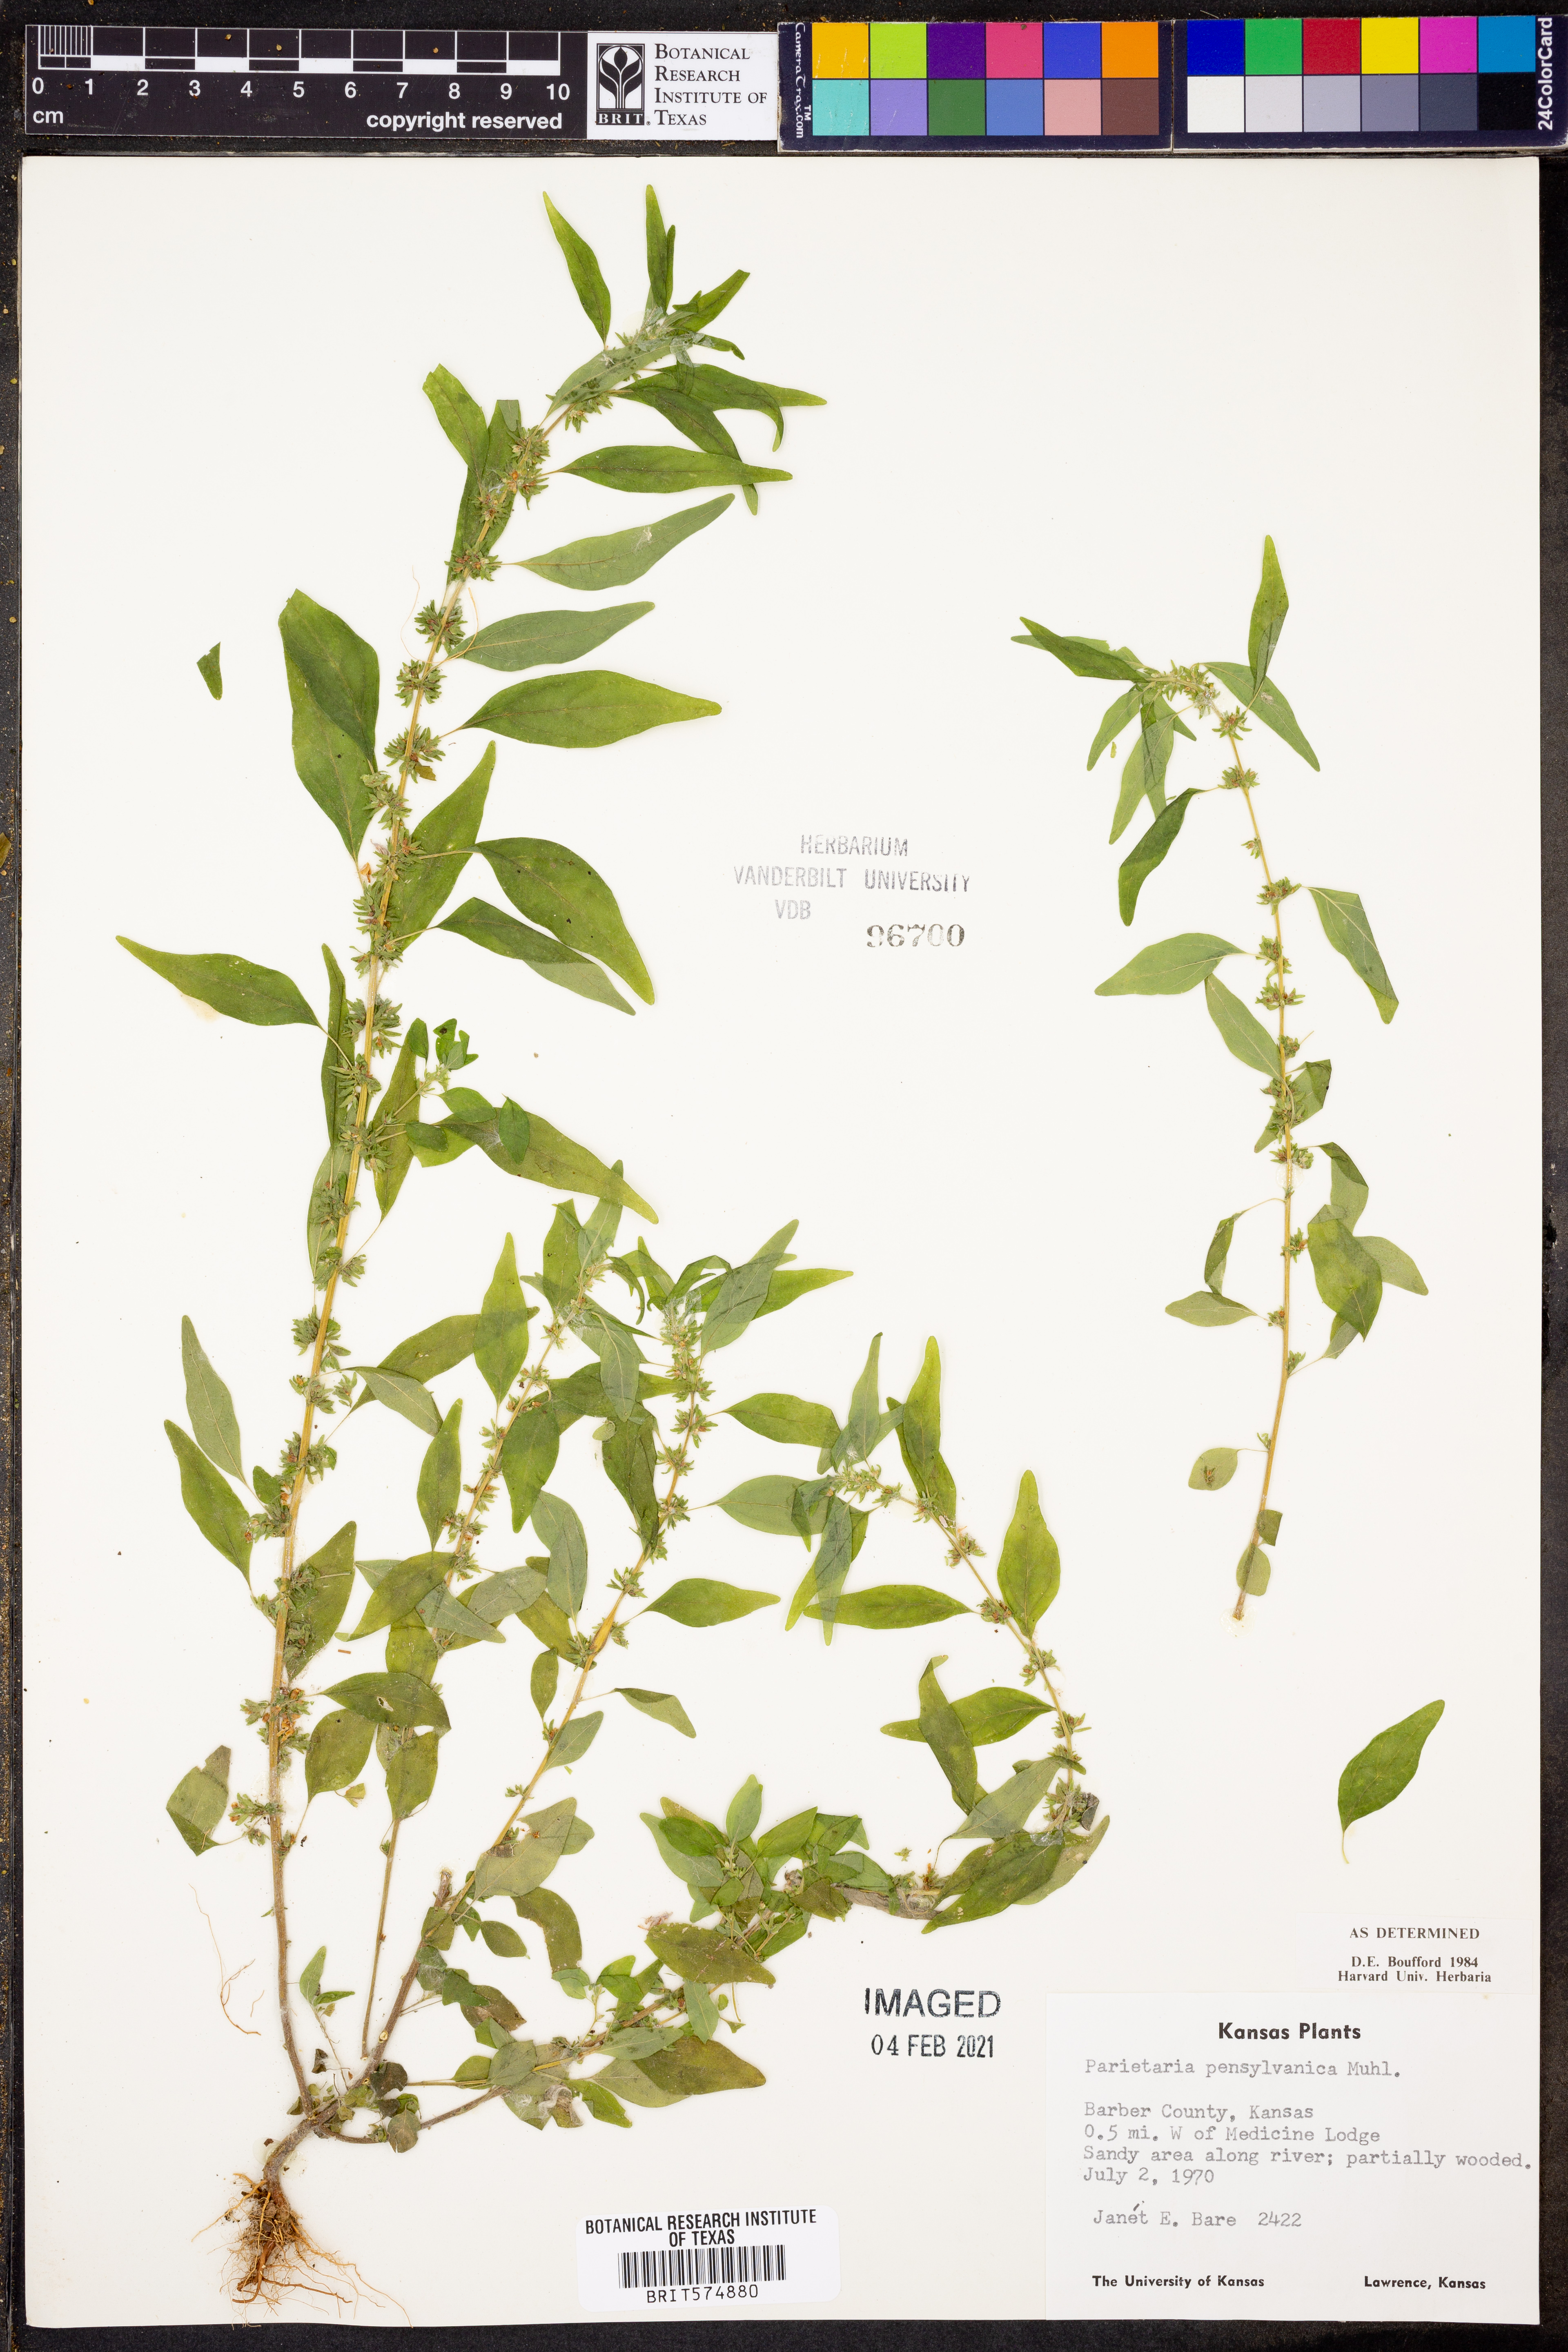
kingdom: Plantae
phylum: Tracheophyta
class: Magnoliopsida
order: Rosales
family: Urticaceae
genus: Parietaria
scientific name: Parietaria pensylvanica
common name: Pennsylvania pellitory
